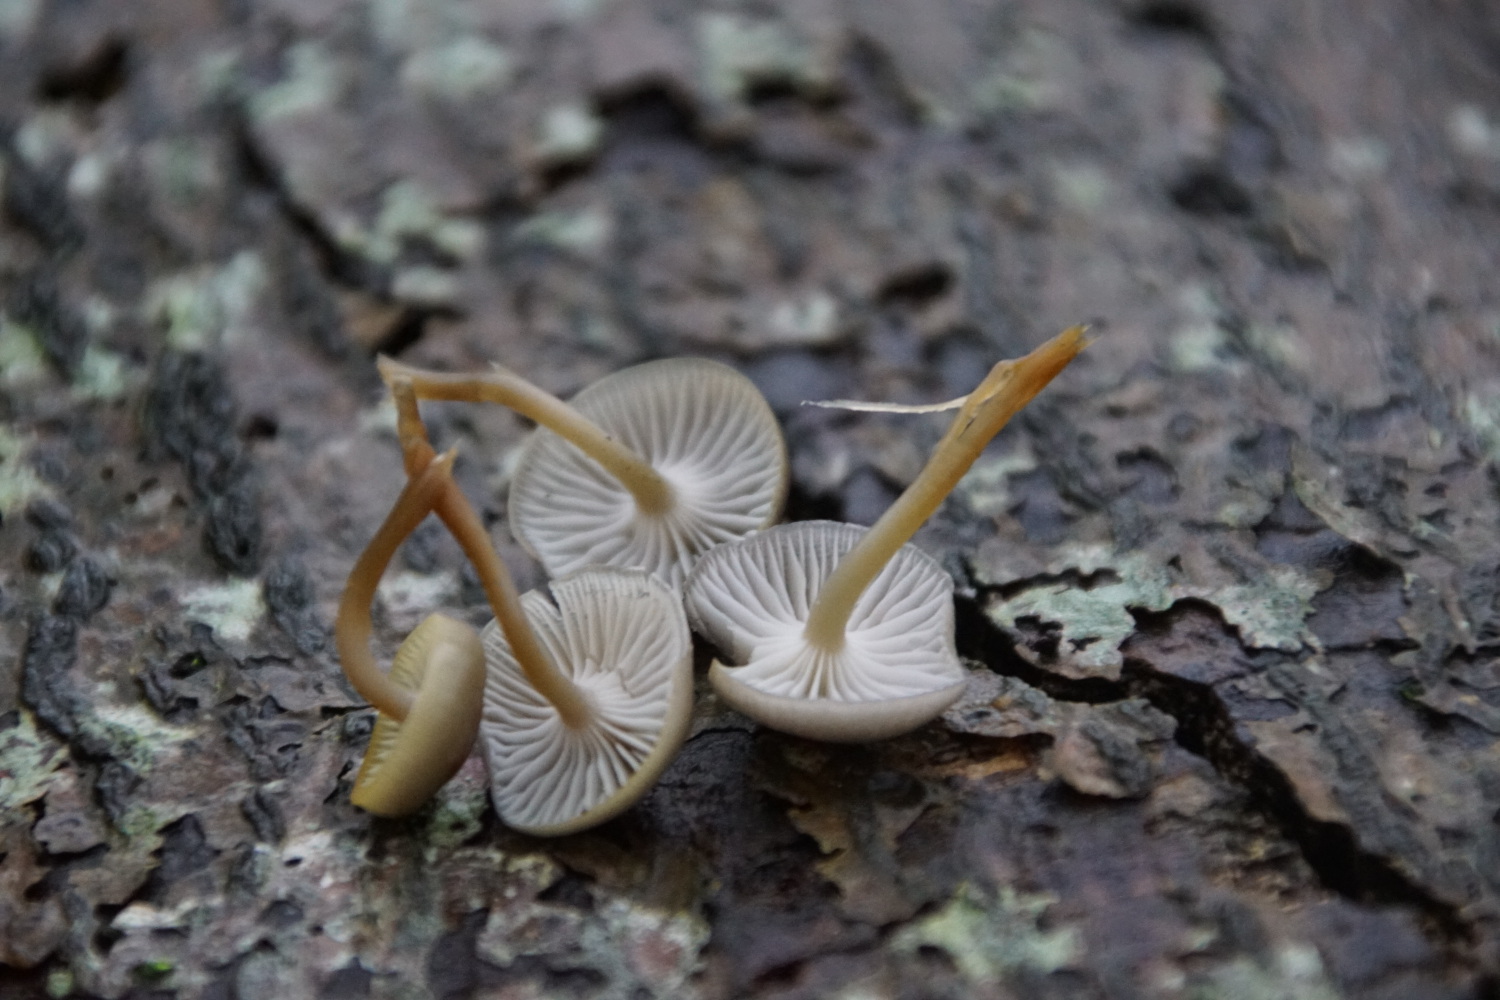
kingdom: Fungi
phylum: Basidiomycota
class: Agaricomycetes
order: Agaricales
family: Mycenaceae
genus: Mycena
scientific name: Mycena tintinnabulum
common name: vinter-huesvamp
